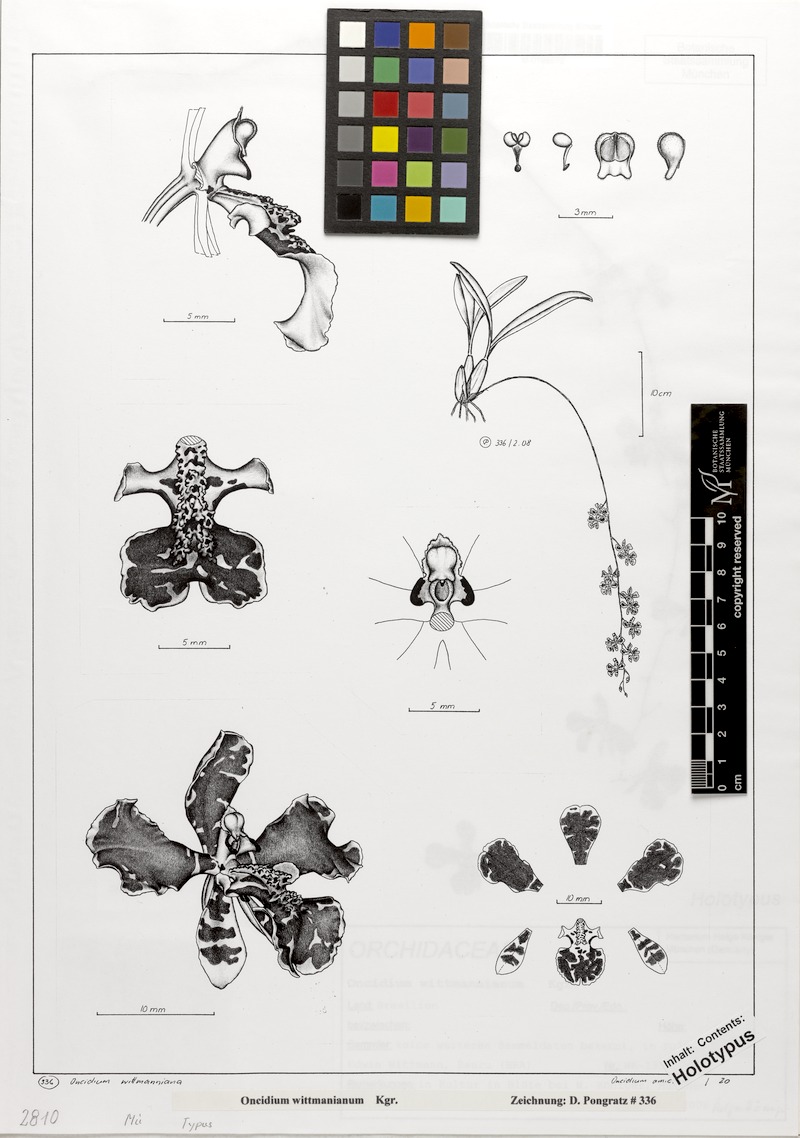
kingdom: Plantae
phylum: Tracheophyta
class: Liliopsida
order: Asparagales
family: Orchidaceae
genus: Gomesa
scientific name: Gomesa widgrenii
